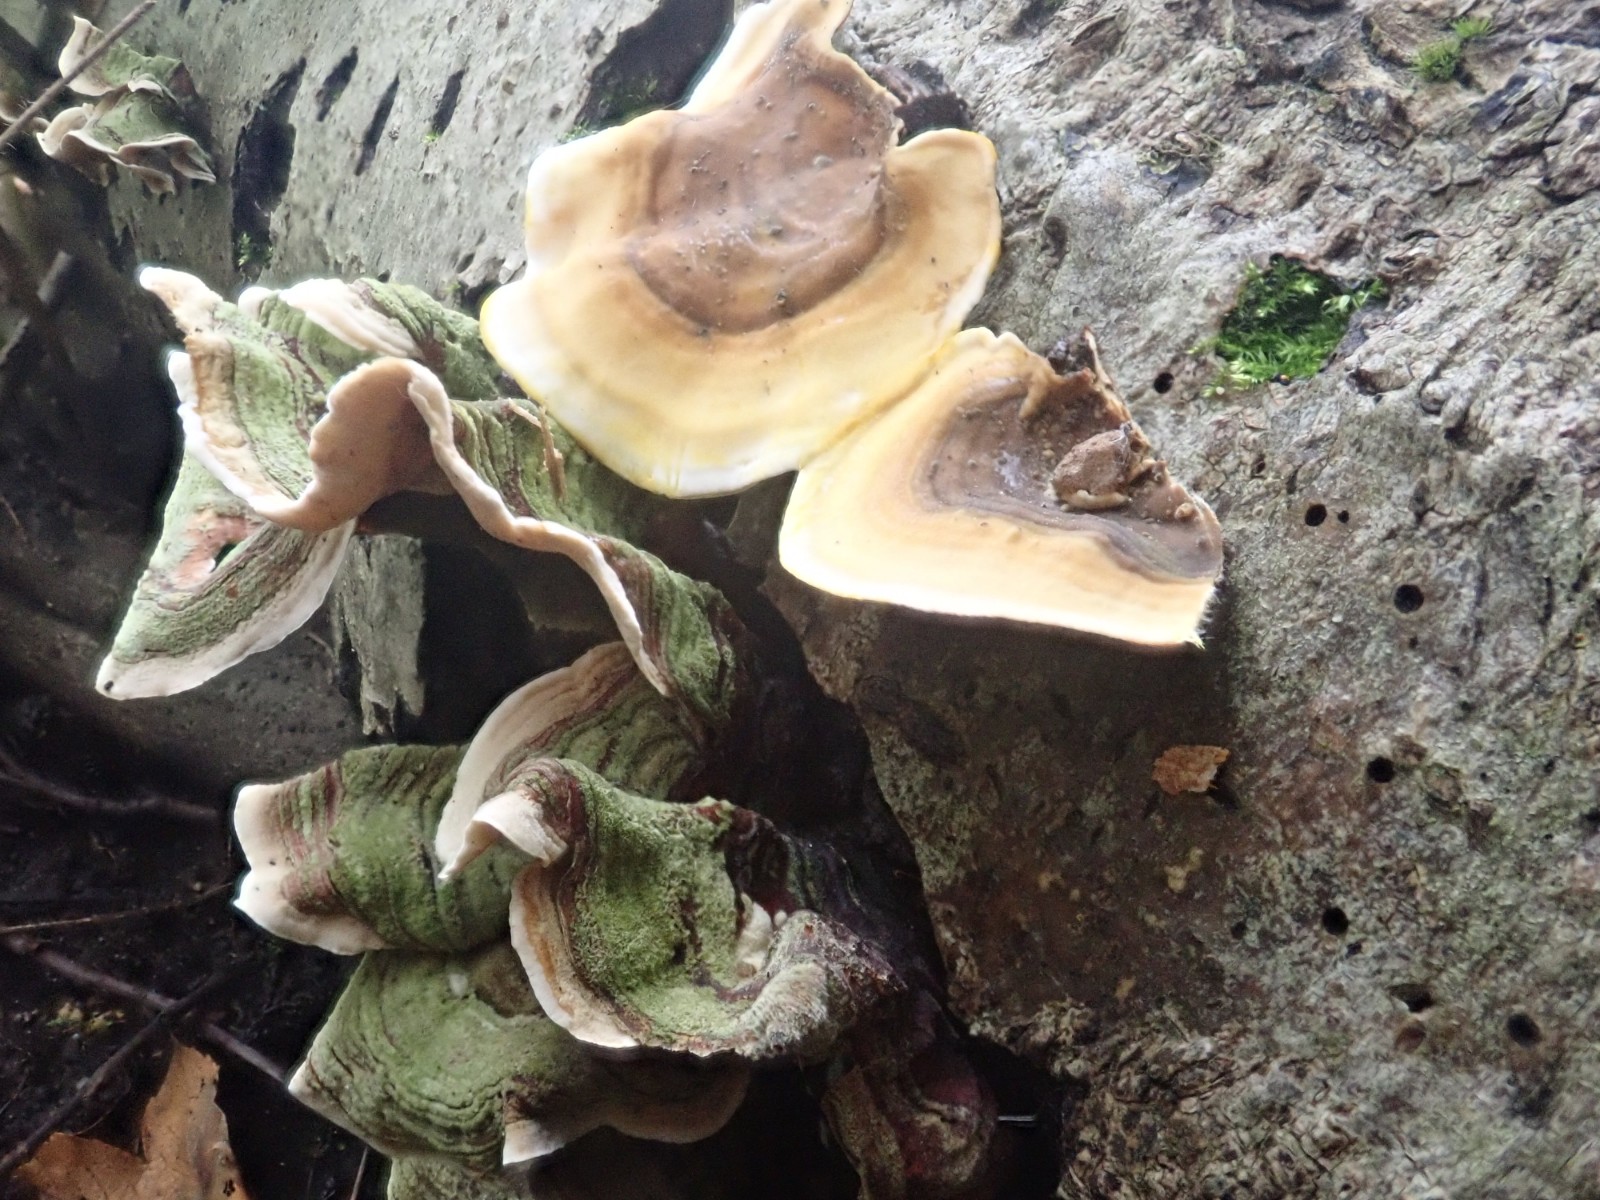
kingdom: Fungi
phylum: Basidiomycota
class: Agaricomycetes
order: Russulales
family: Stereaceae
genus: Stereum
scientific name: Stereum subtomentosum
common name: smuk lædersvamp
